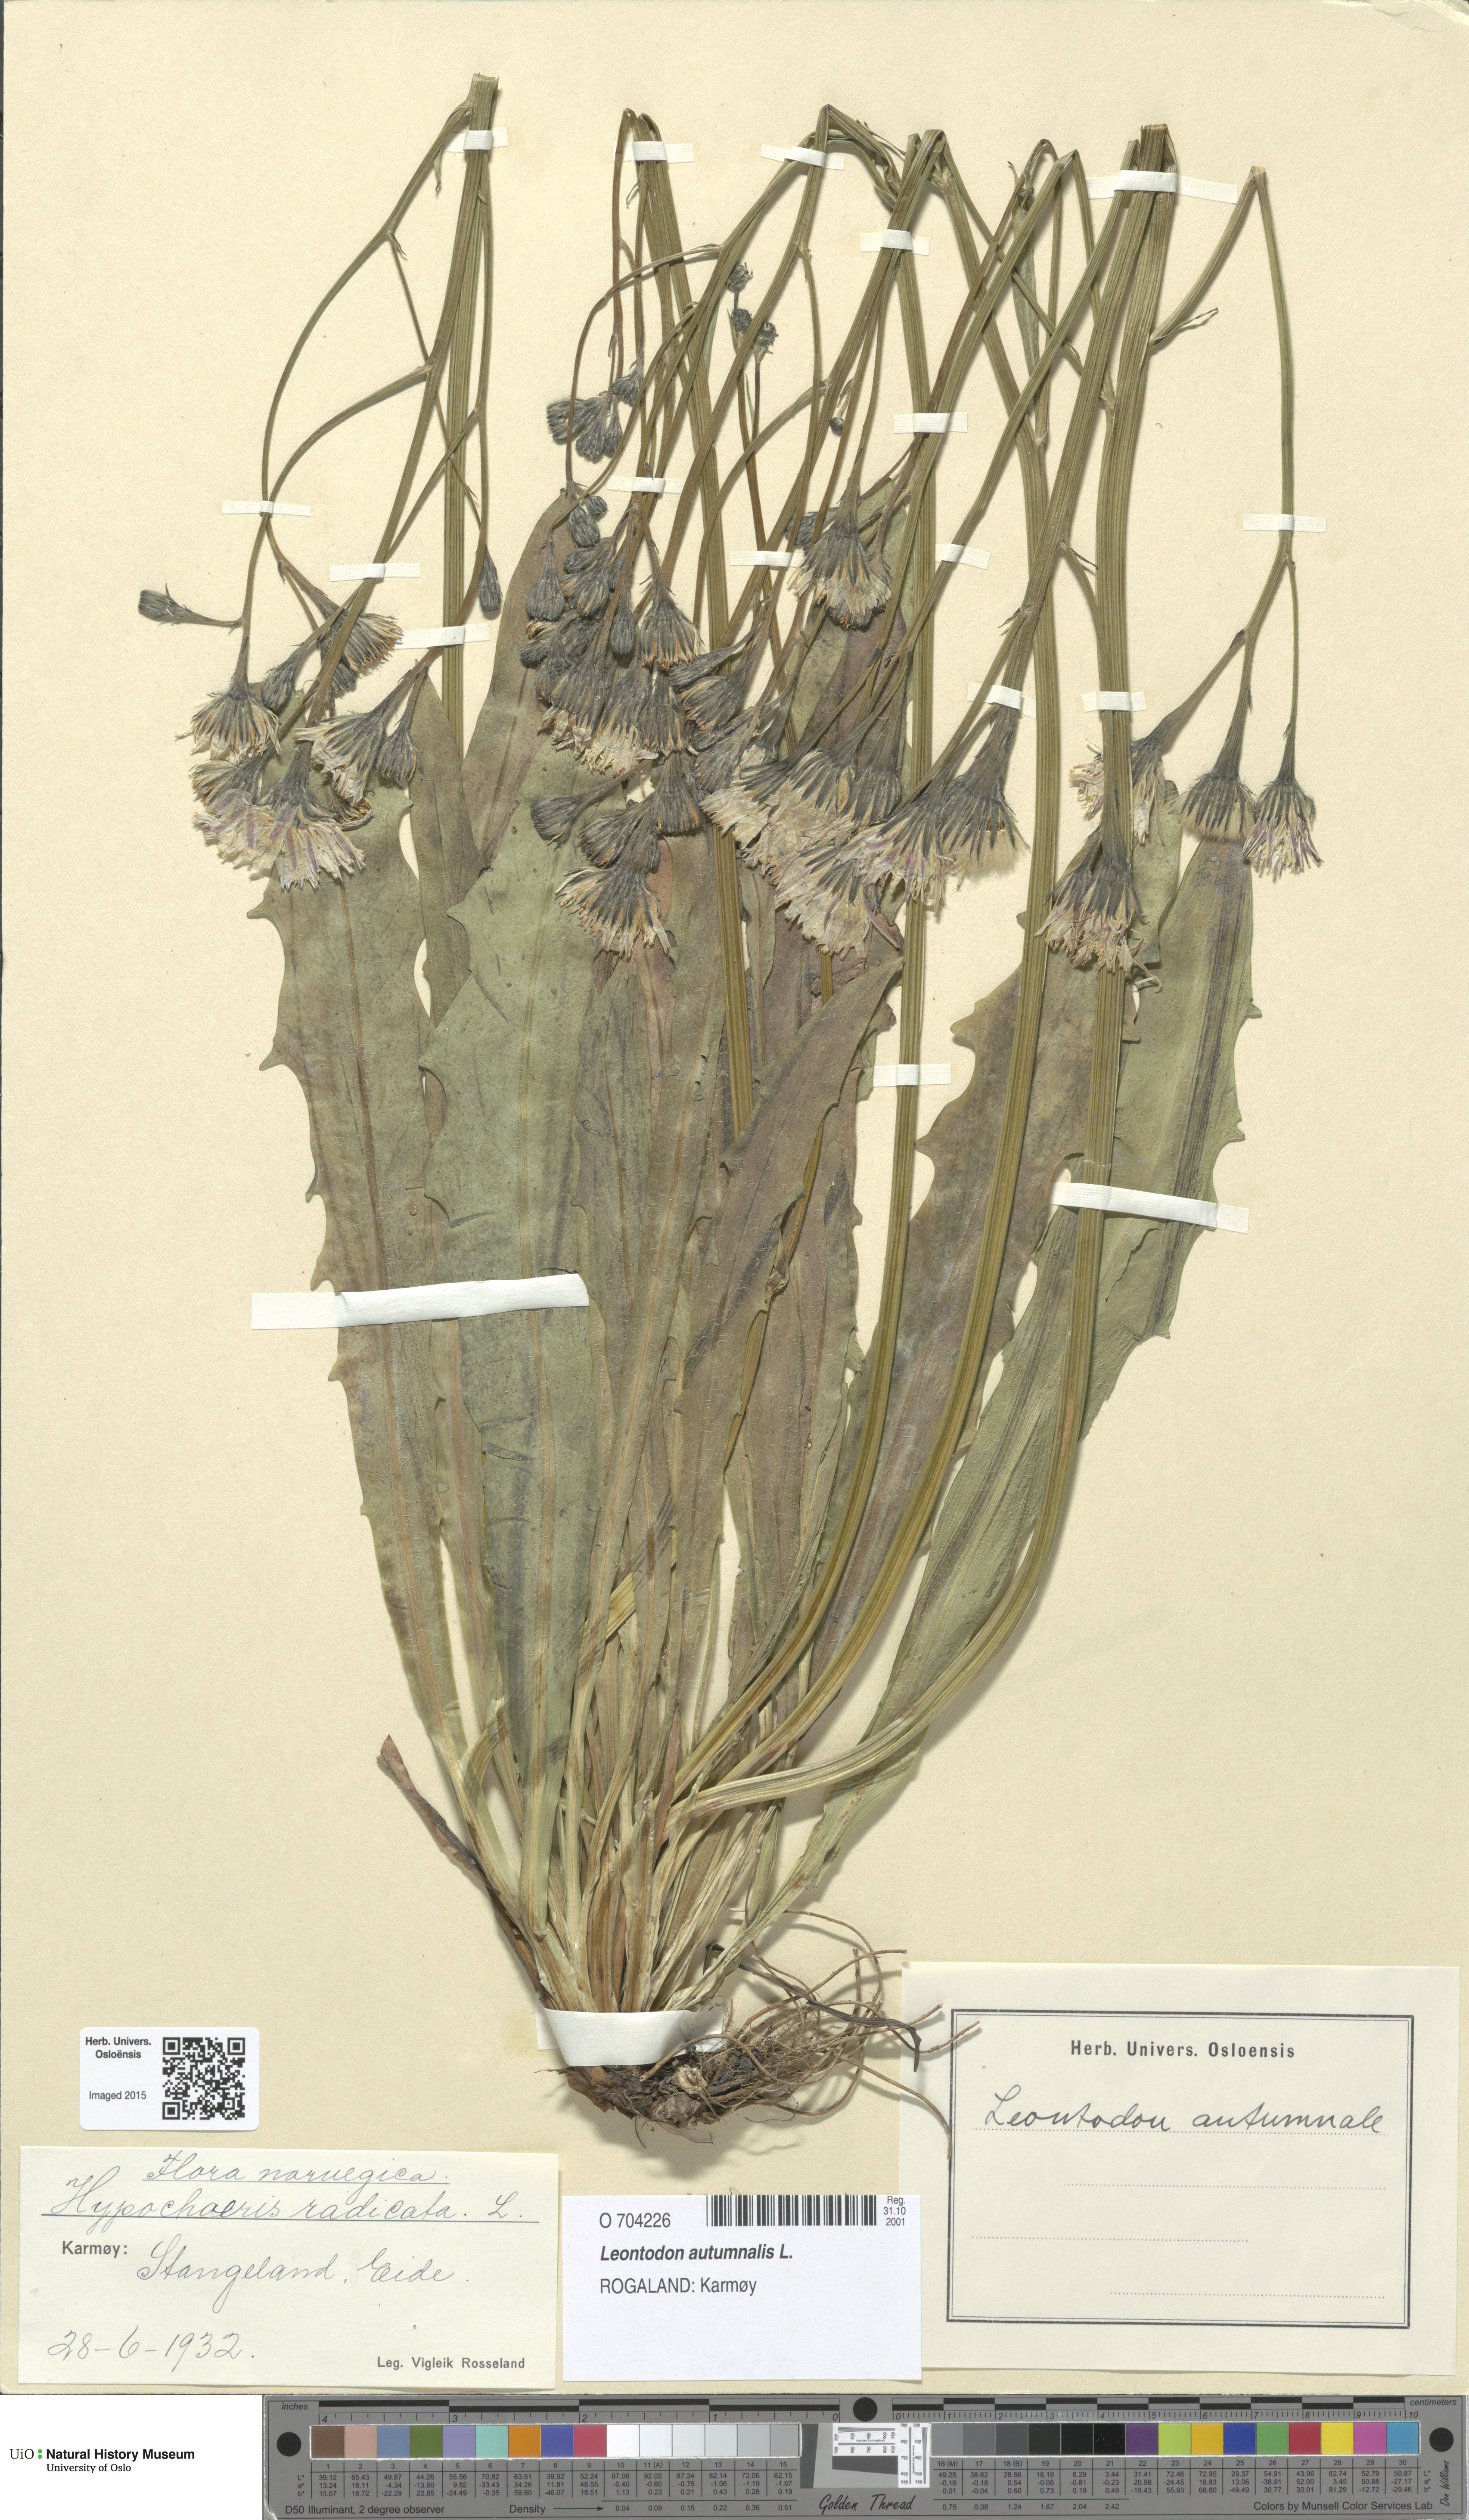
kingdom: Plantae
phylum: Tracheophyta
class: Magnoliopsida
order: Asterales
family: Asteraceae
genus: Scorzoneroides
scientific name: Scorzoneroides autumnalis
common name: Autumn hawkbit
